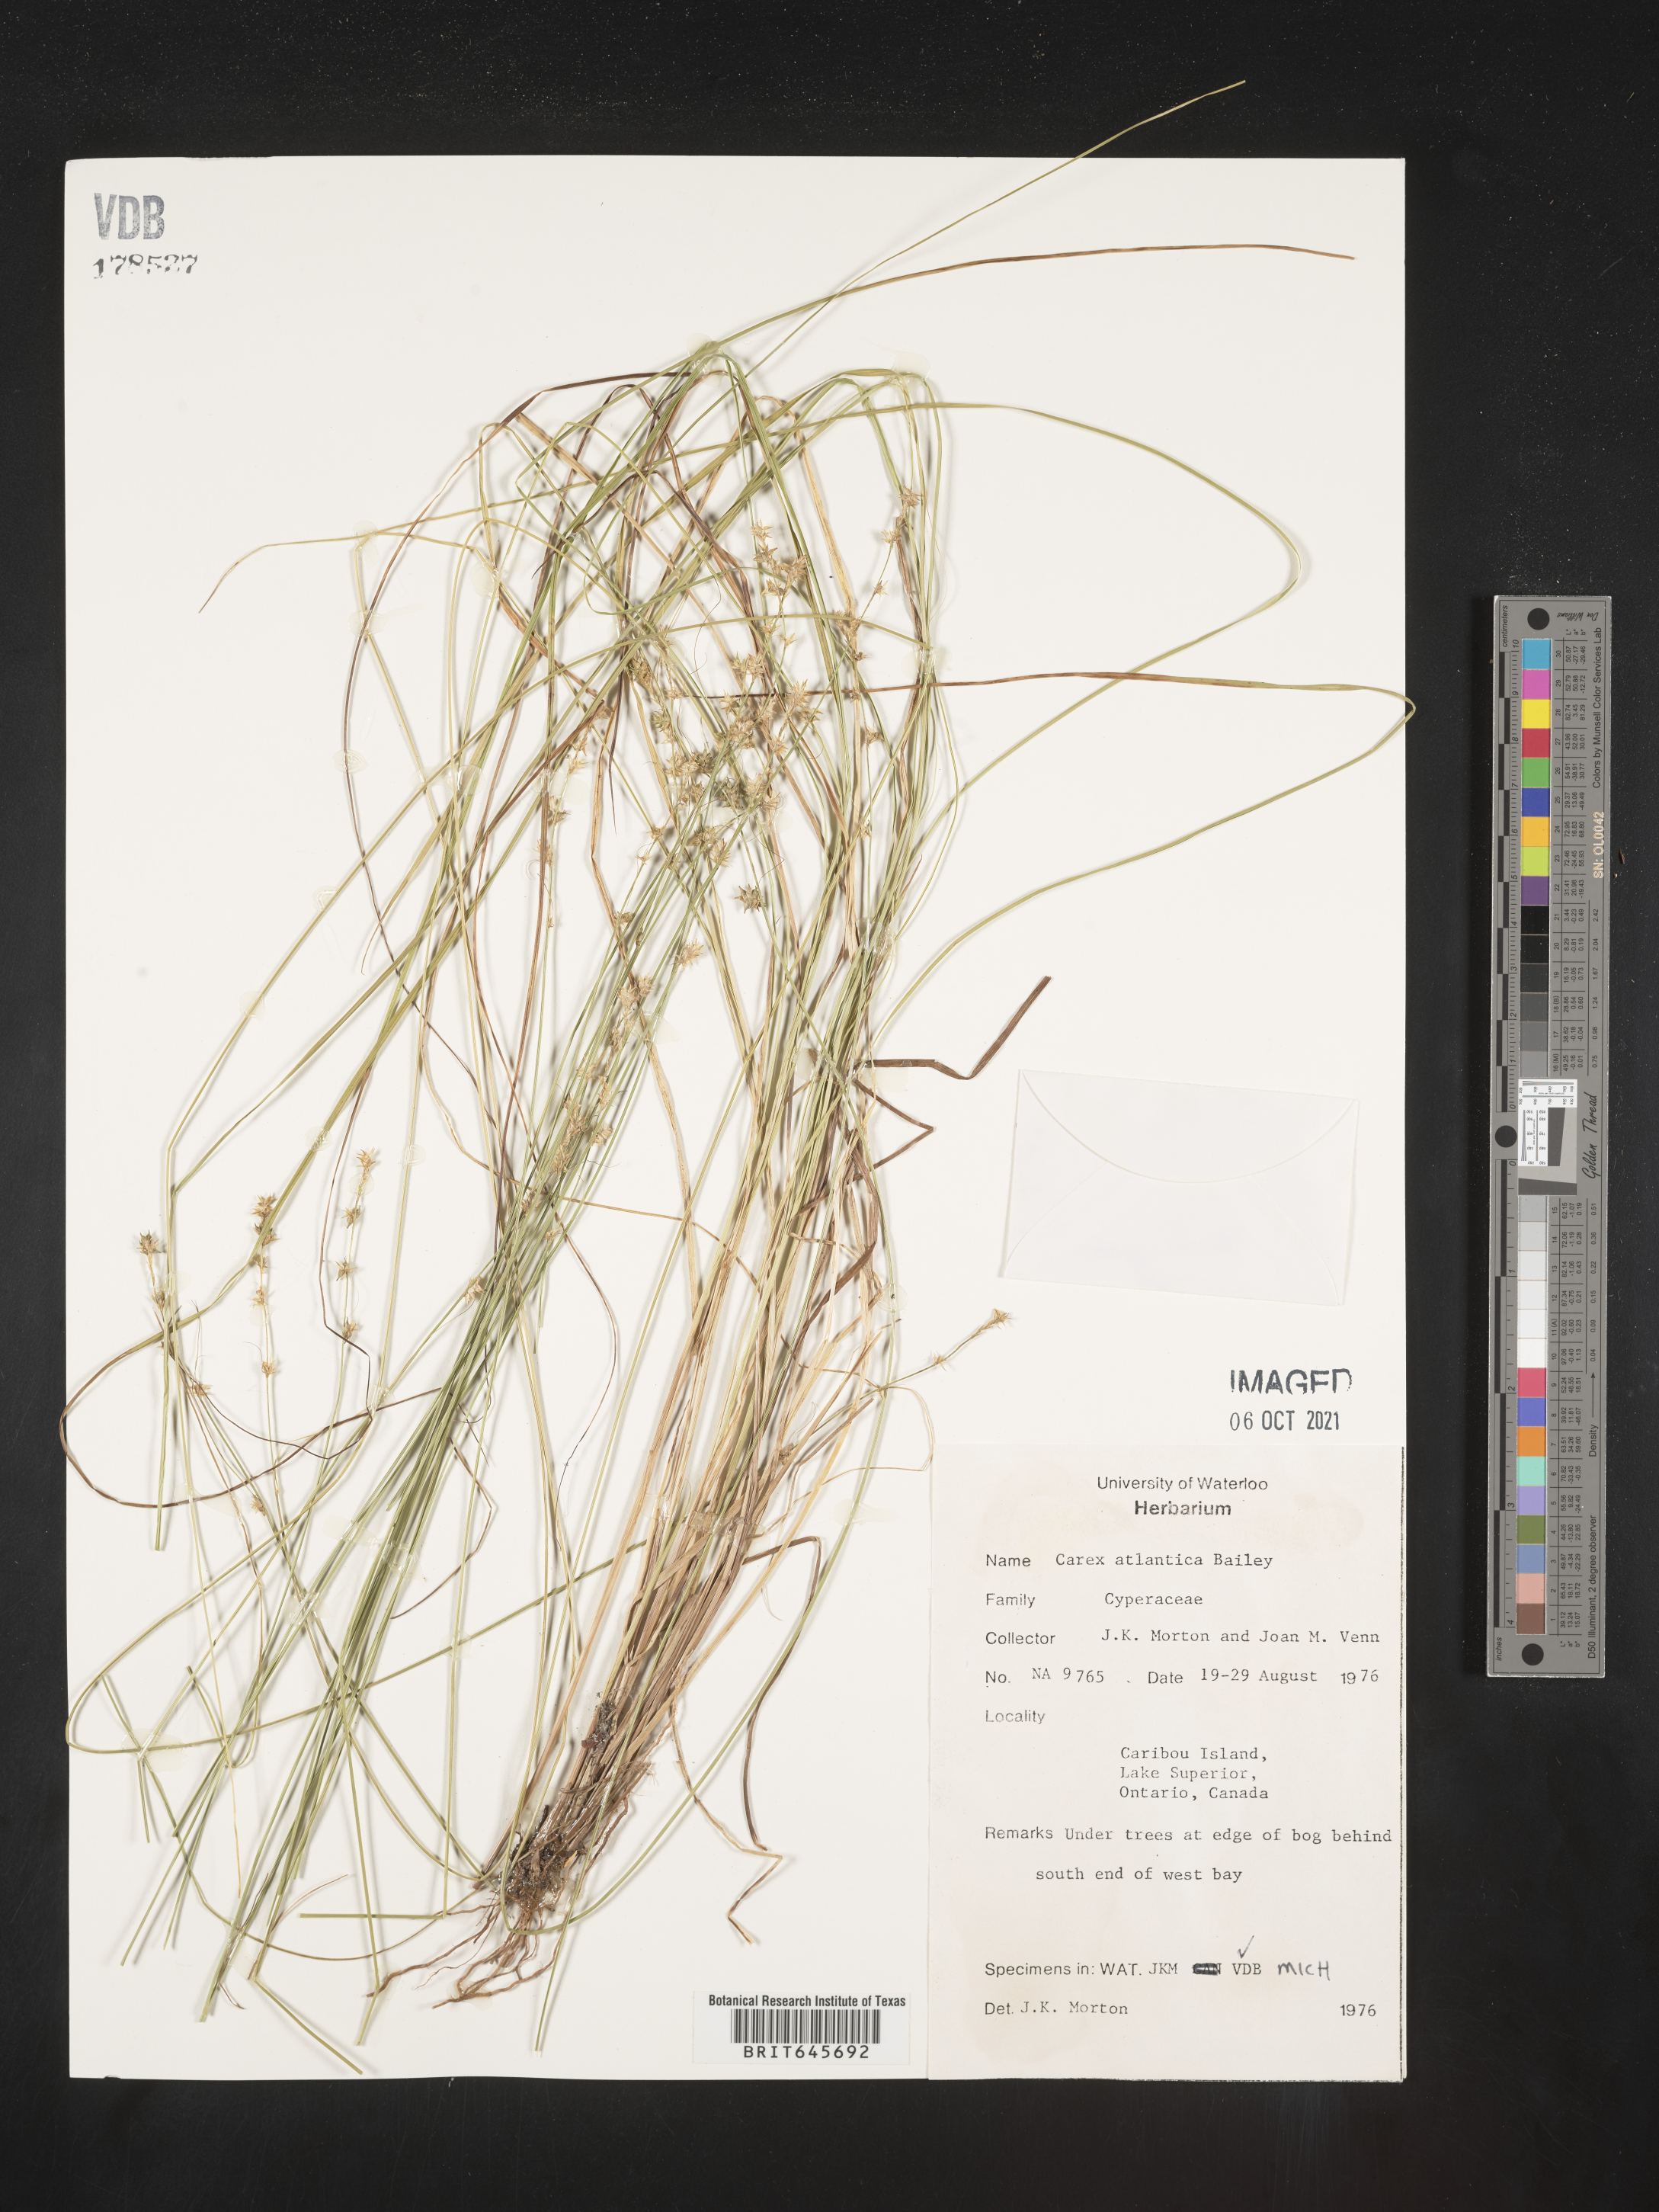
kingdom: Plantae
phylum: Tracheophyta
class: Liliopsida
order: Poales
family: Cyperaceae
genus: Carex
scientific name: Carex atlantica
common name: Atlantic sedge
